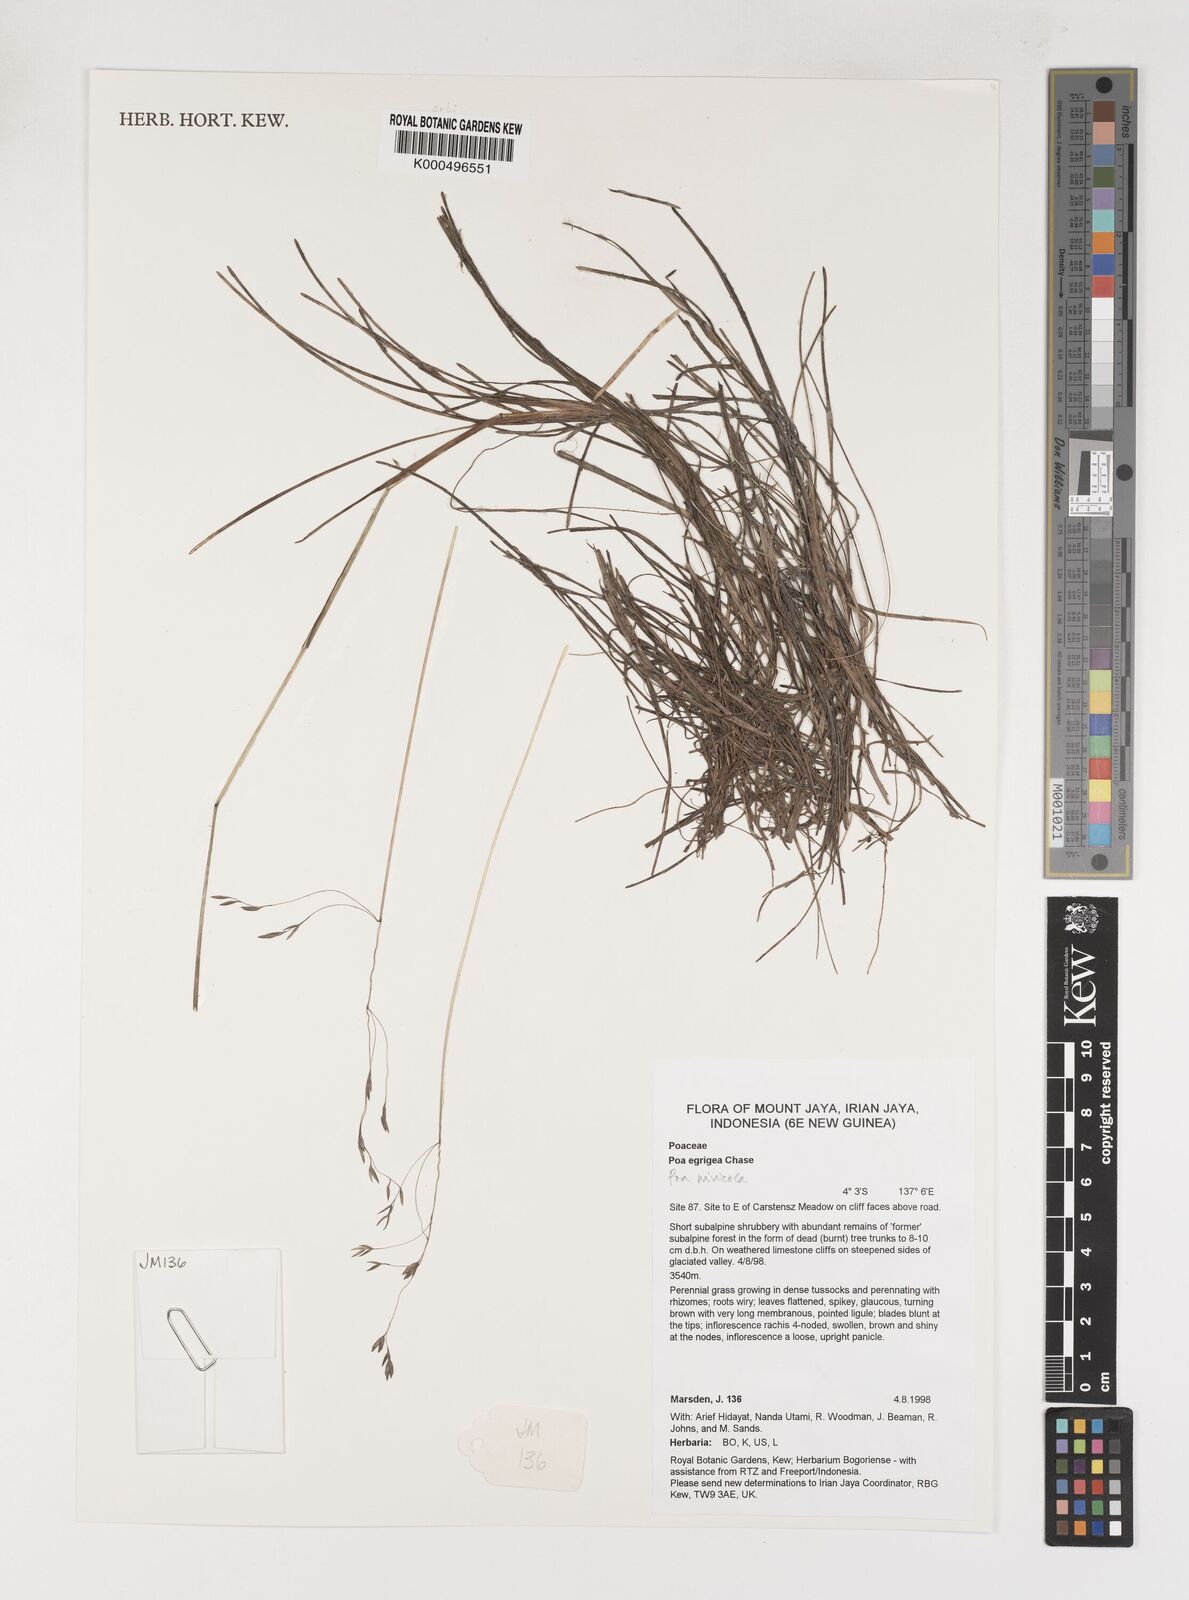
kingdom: Plantae
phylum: Tracheophyta
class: Liliopsida
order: Poales
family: Poaceae
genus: Poa
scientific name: Poa
